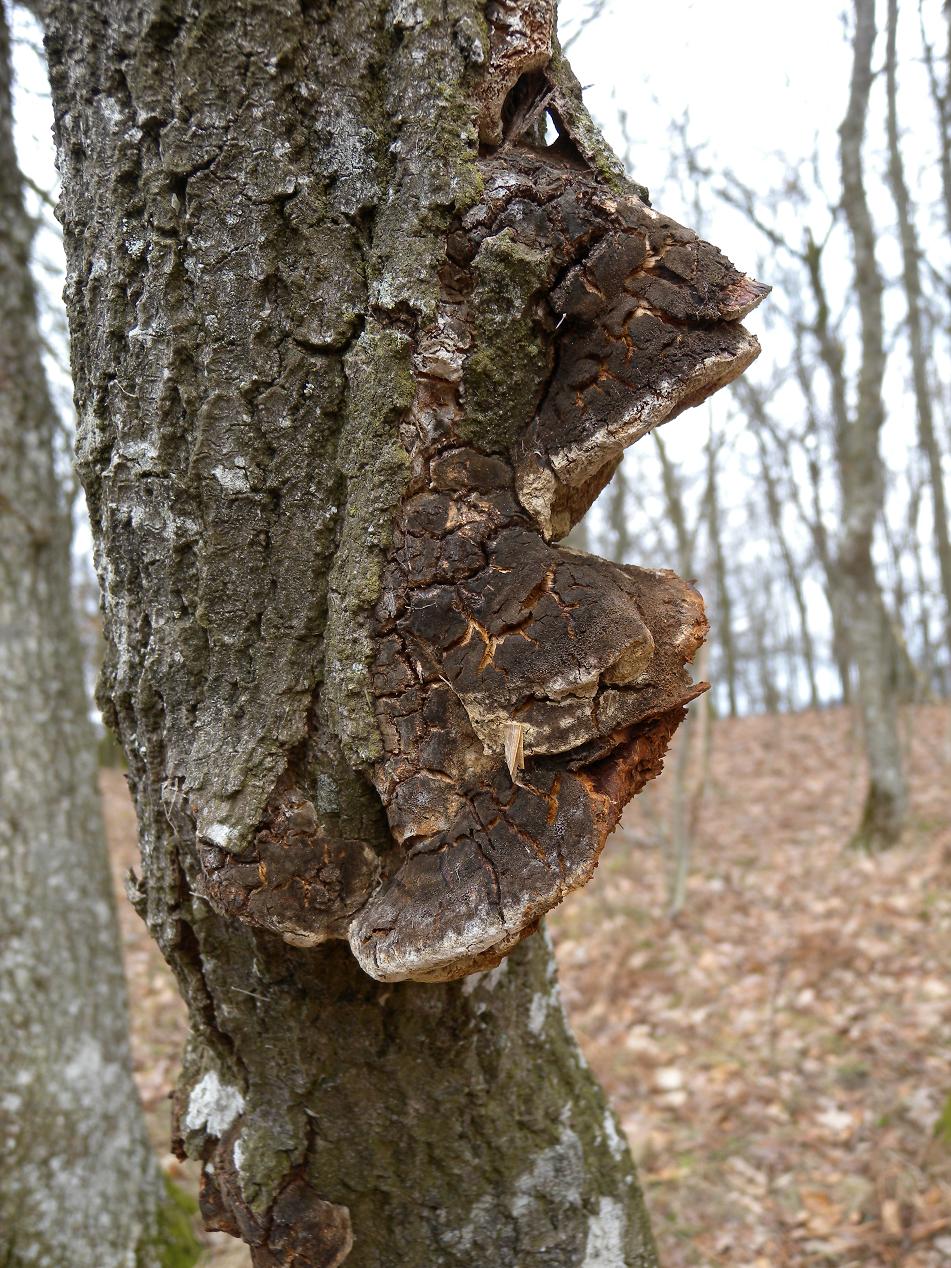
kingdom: Fungi
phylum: Basidiomycota
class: Agaricomycetes
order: Hymenochaetales
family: Hymenochaetaceae
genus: Phellinus
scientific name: Phellinus tremulae
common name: aspe-ildporesvamp
